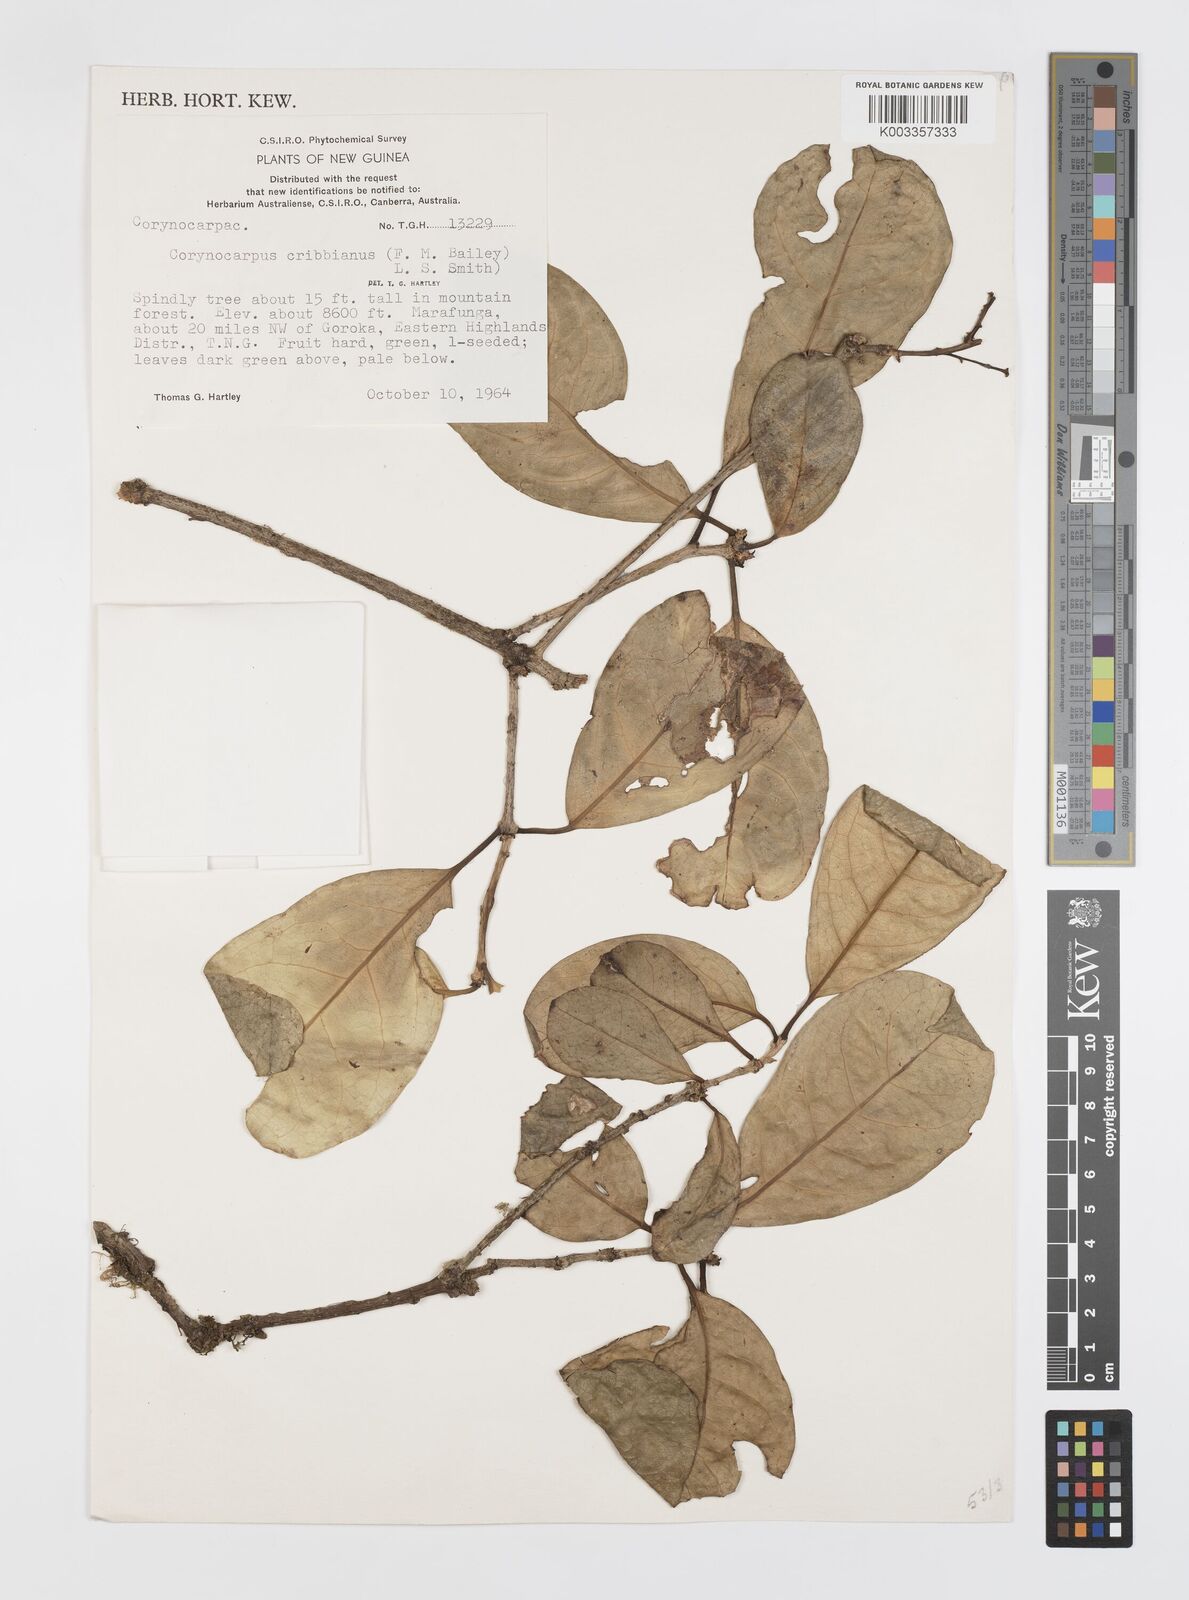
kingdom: Plantae
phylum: Tracheophyta
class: Magnoliopsida
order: Cucurbitales
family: Corynocarpaceae
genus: Corynocarpus
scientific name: Corynocarpus cribbianus
